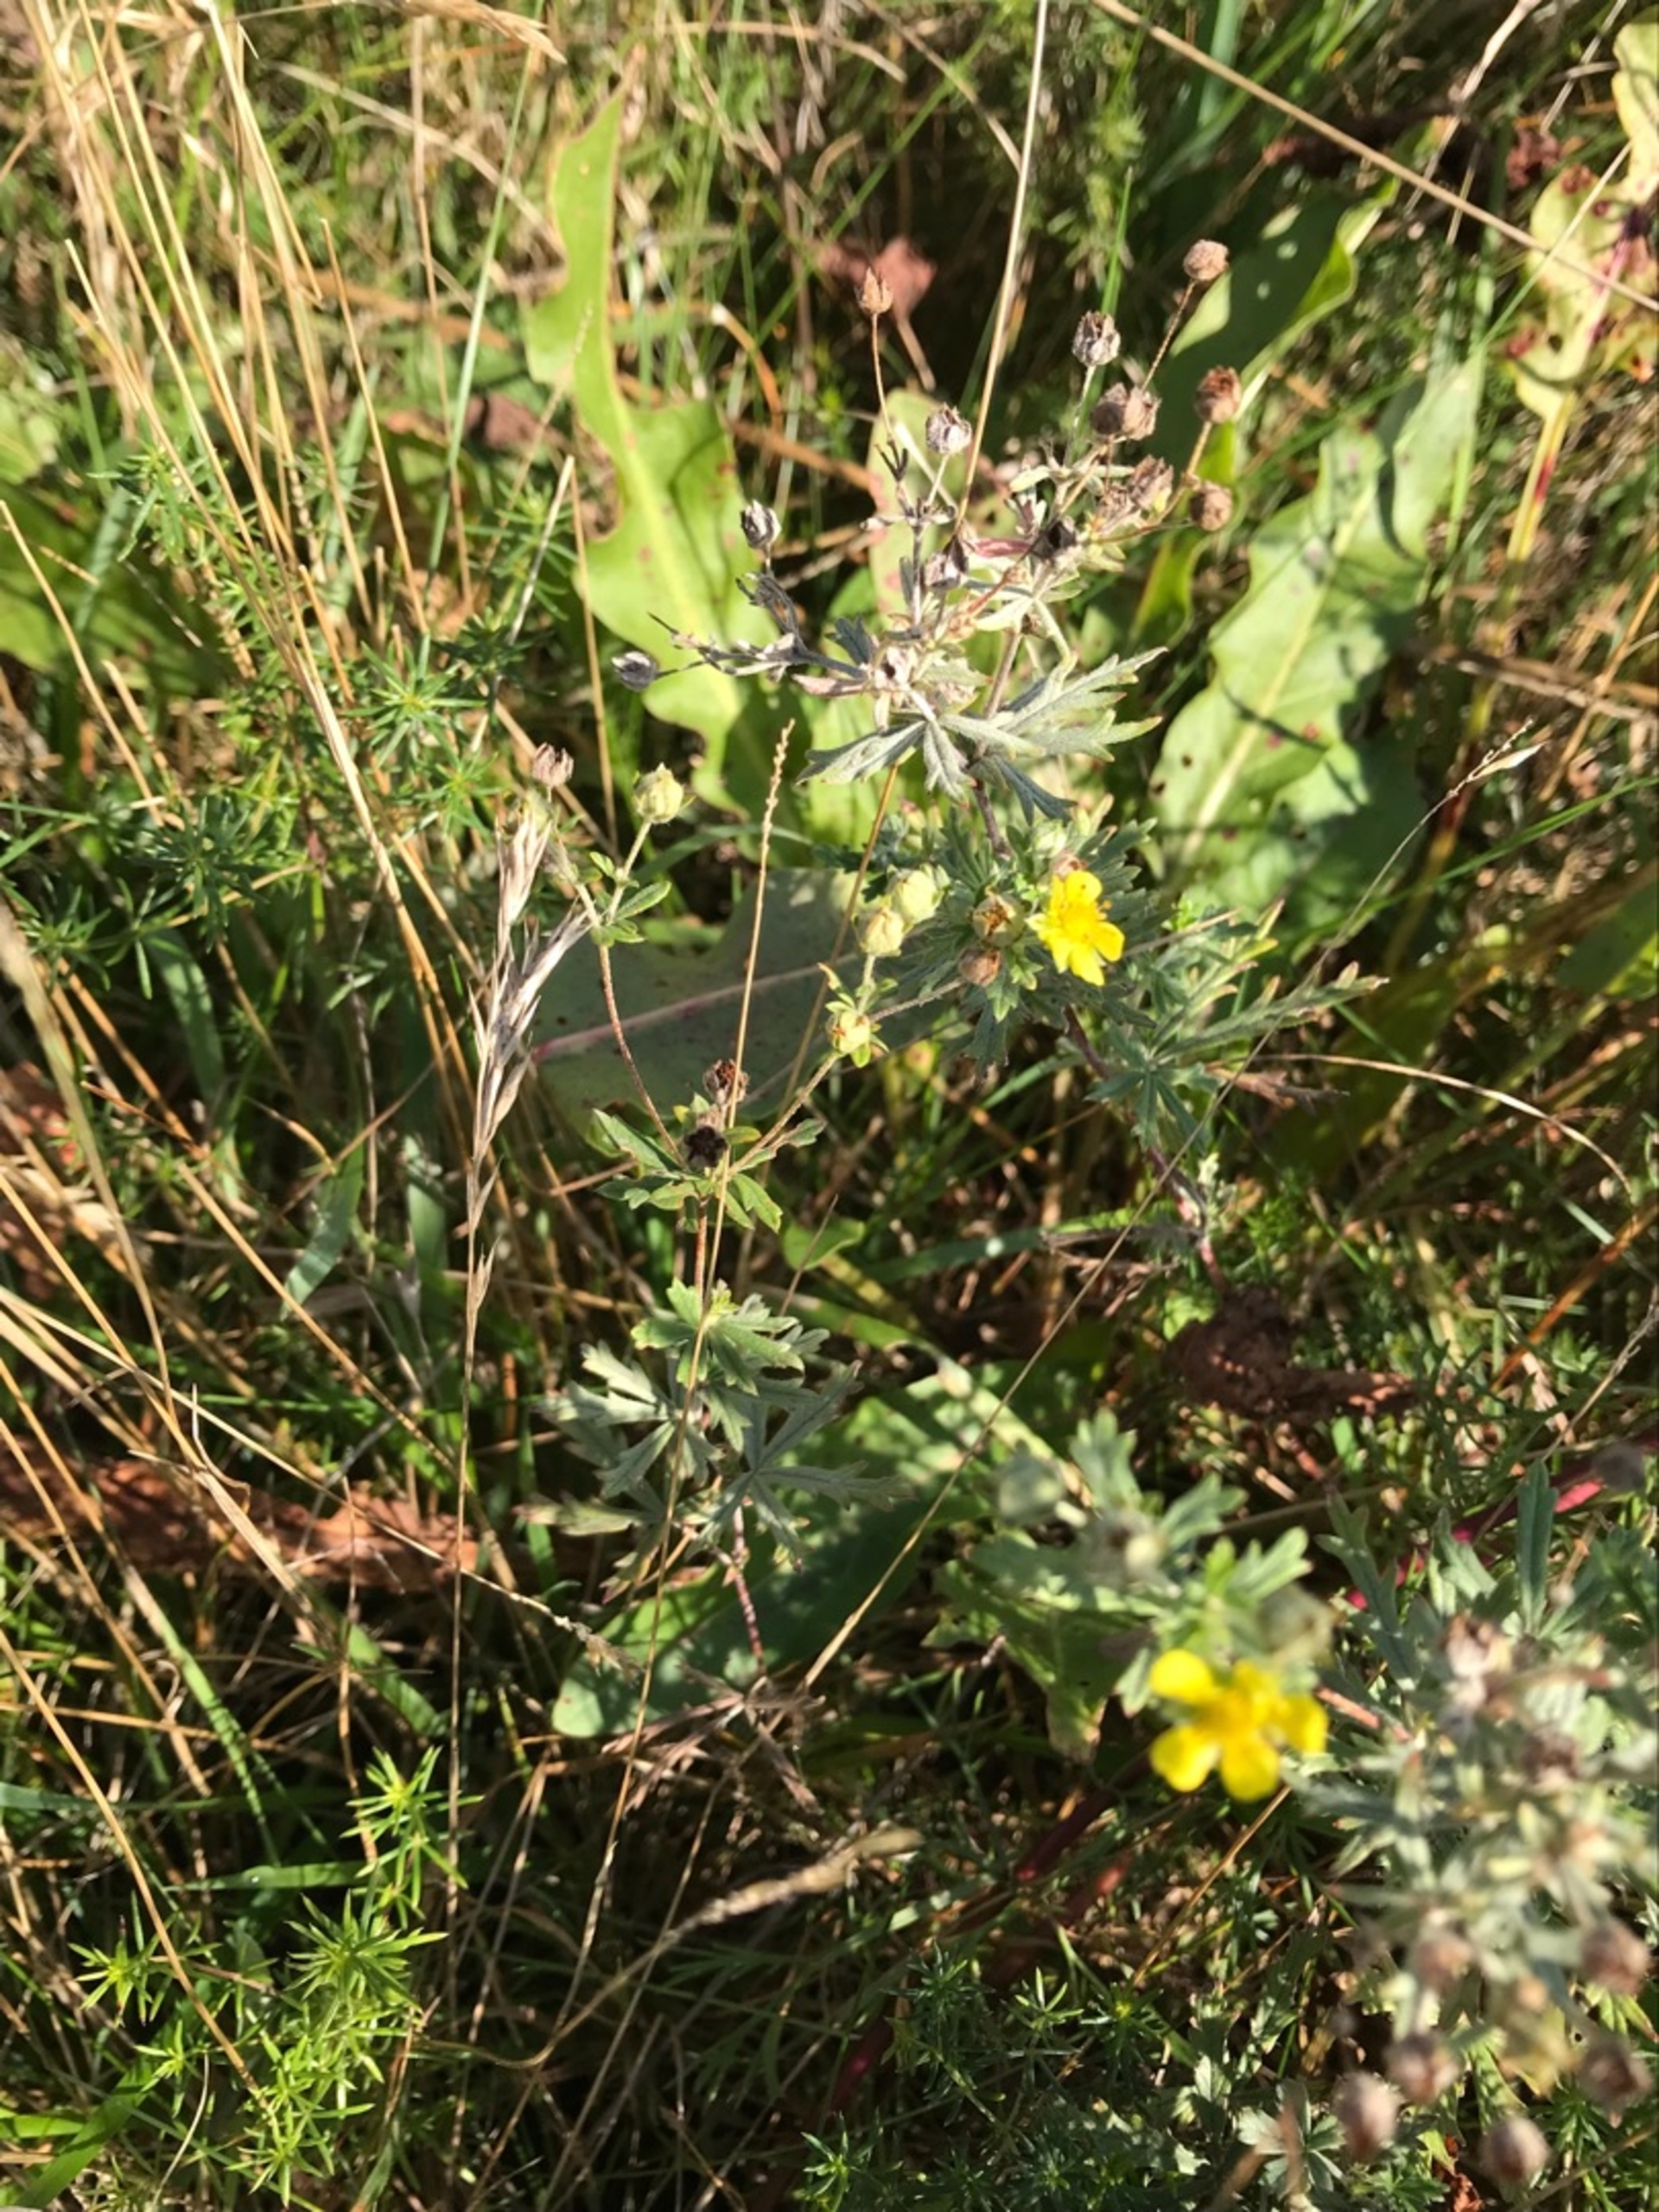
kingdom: Plantae
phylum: Tracheophyta
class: Magnoliopsida
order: Rosales
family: Rosaceae
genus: Potentilla
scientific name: Potentilla inclinata
